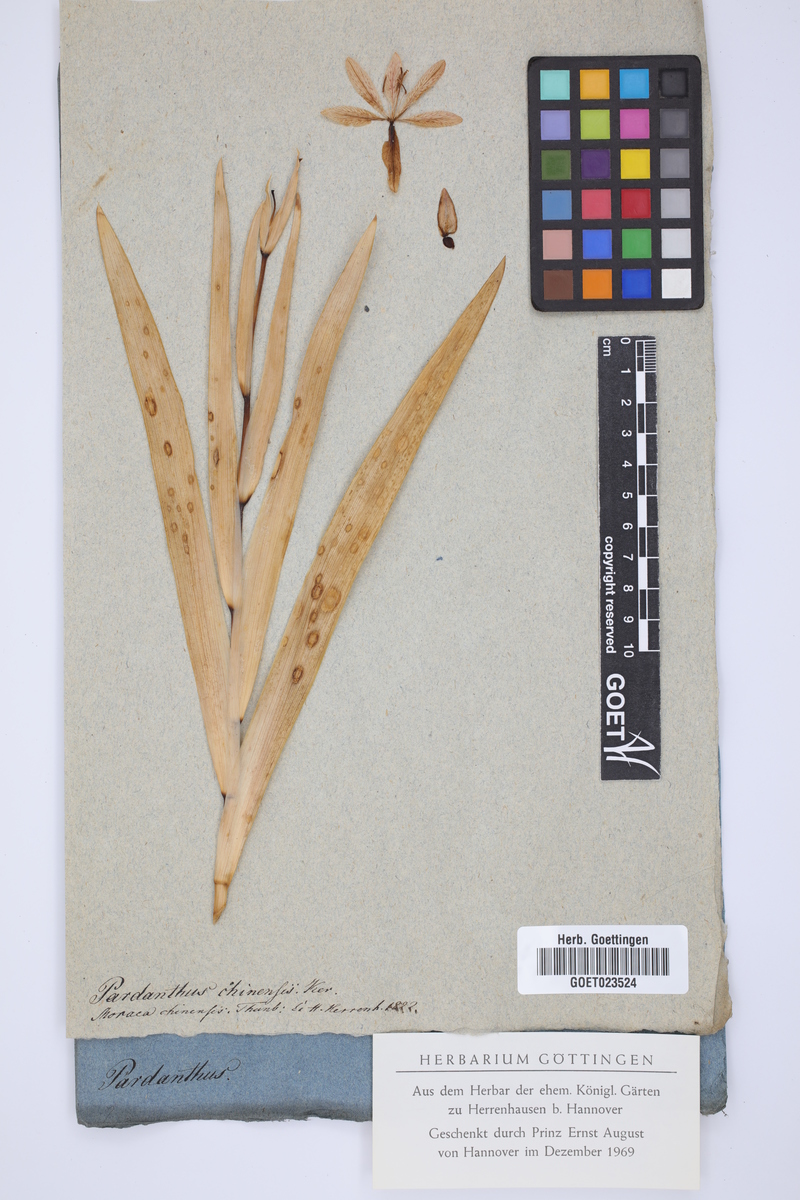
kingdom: Plantae
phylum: Tracheophyta
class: Liliopsida
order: Asparagales
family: Iridaceae
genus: Iris
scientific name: Iris domestica
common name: Belamcanda
